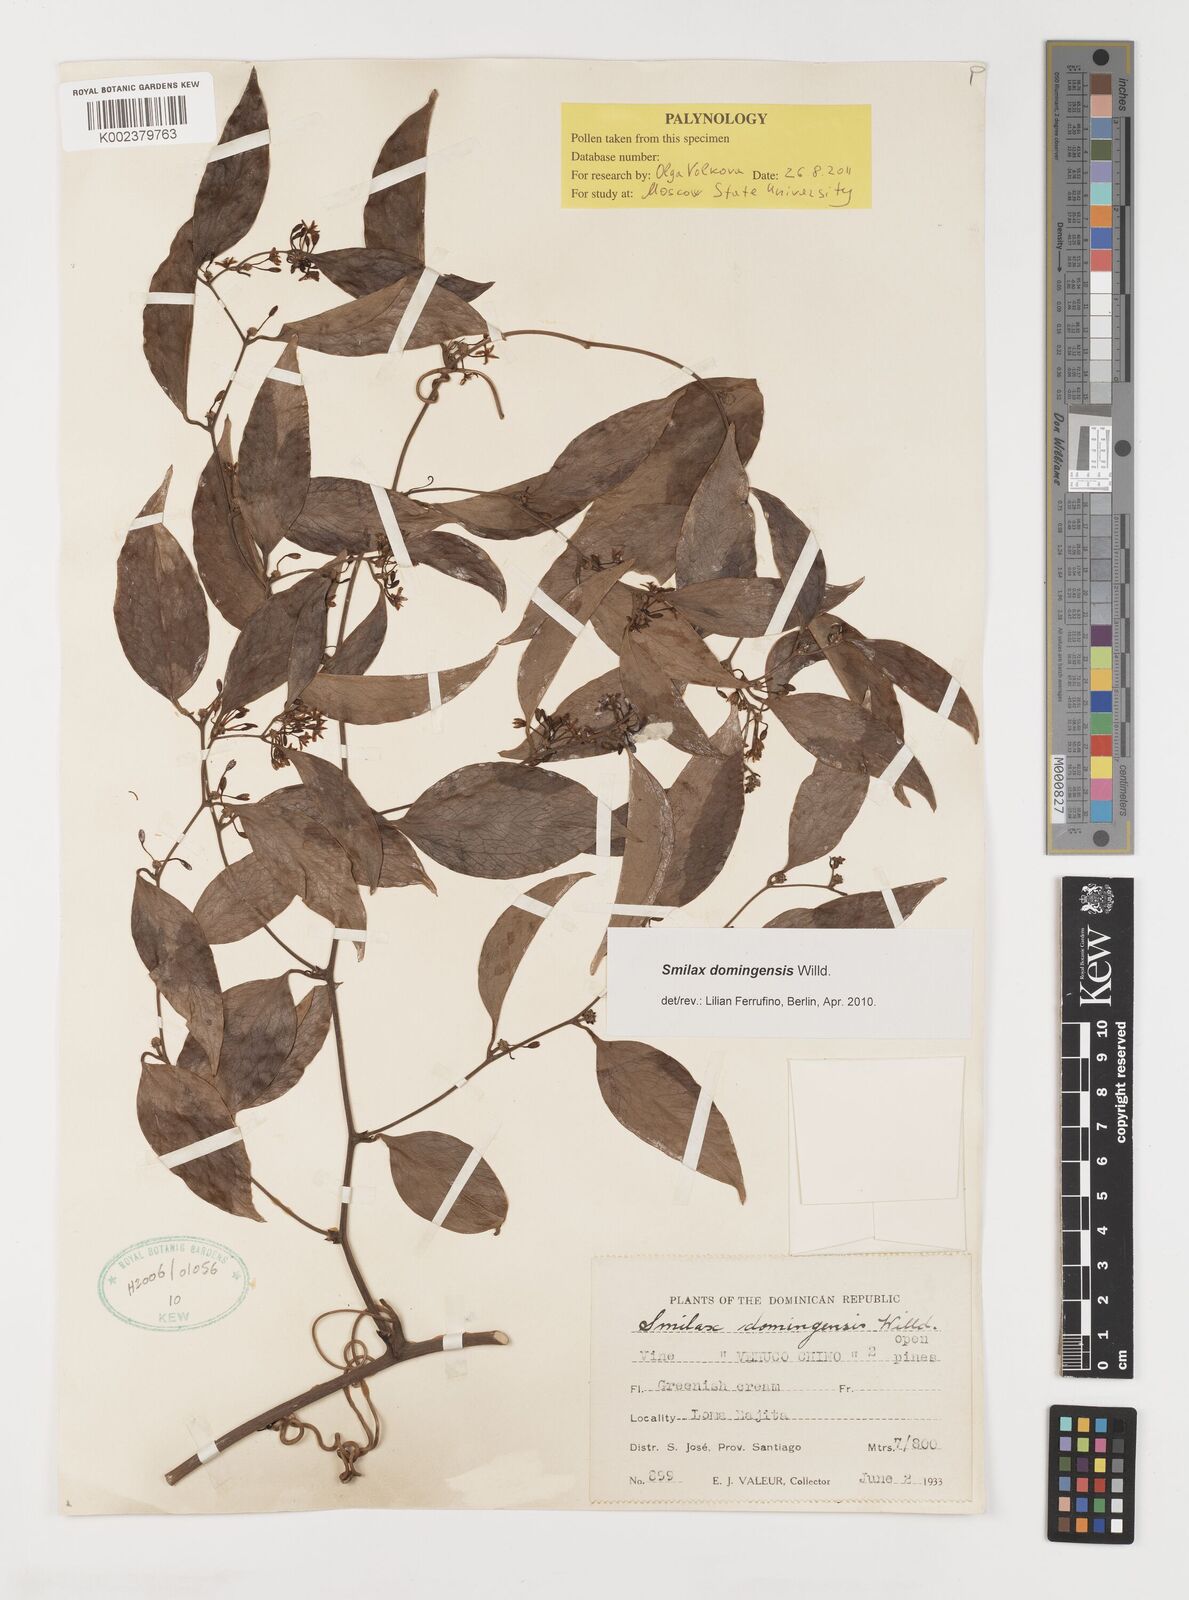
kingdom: Plantae
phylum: Tracheophyta
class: Liliopsida
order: Liliales
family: Smilacaceae
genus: Smilax
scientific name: Smilax domingensis
